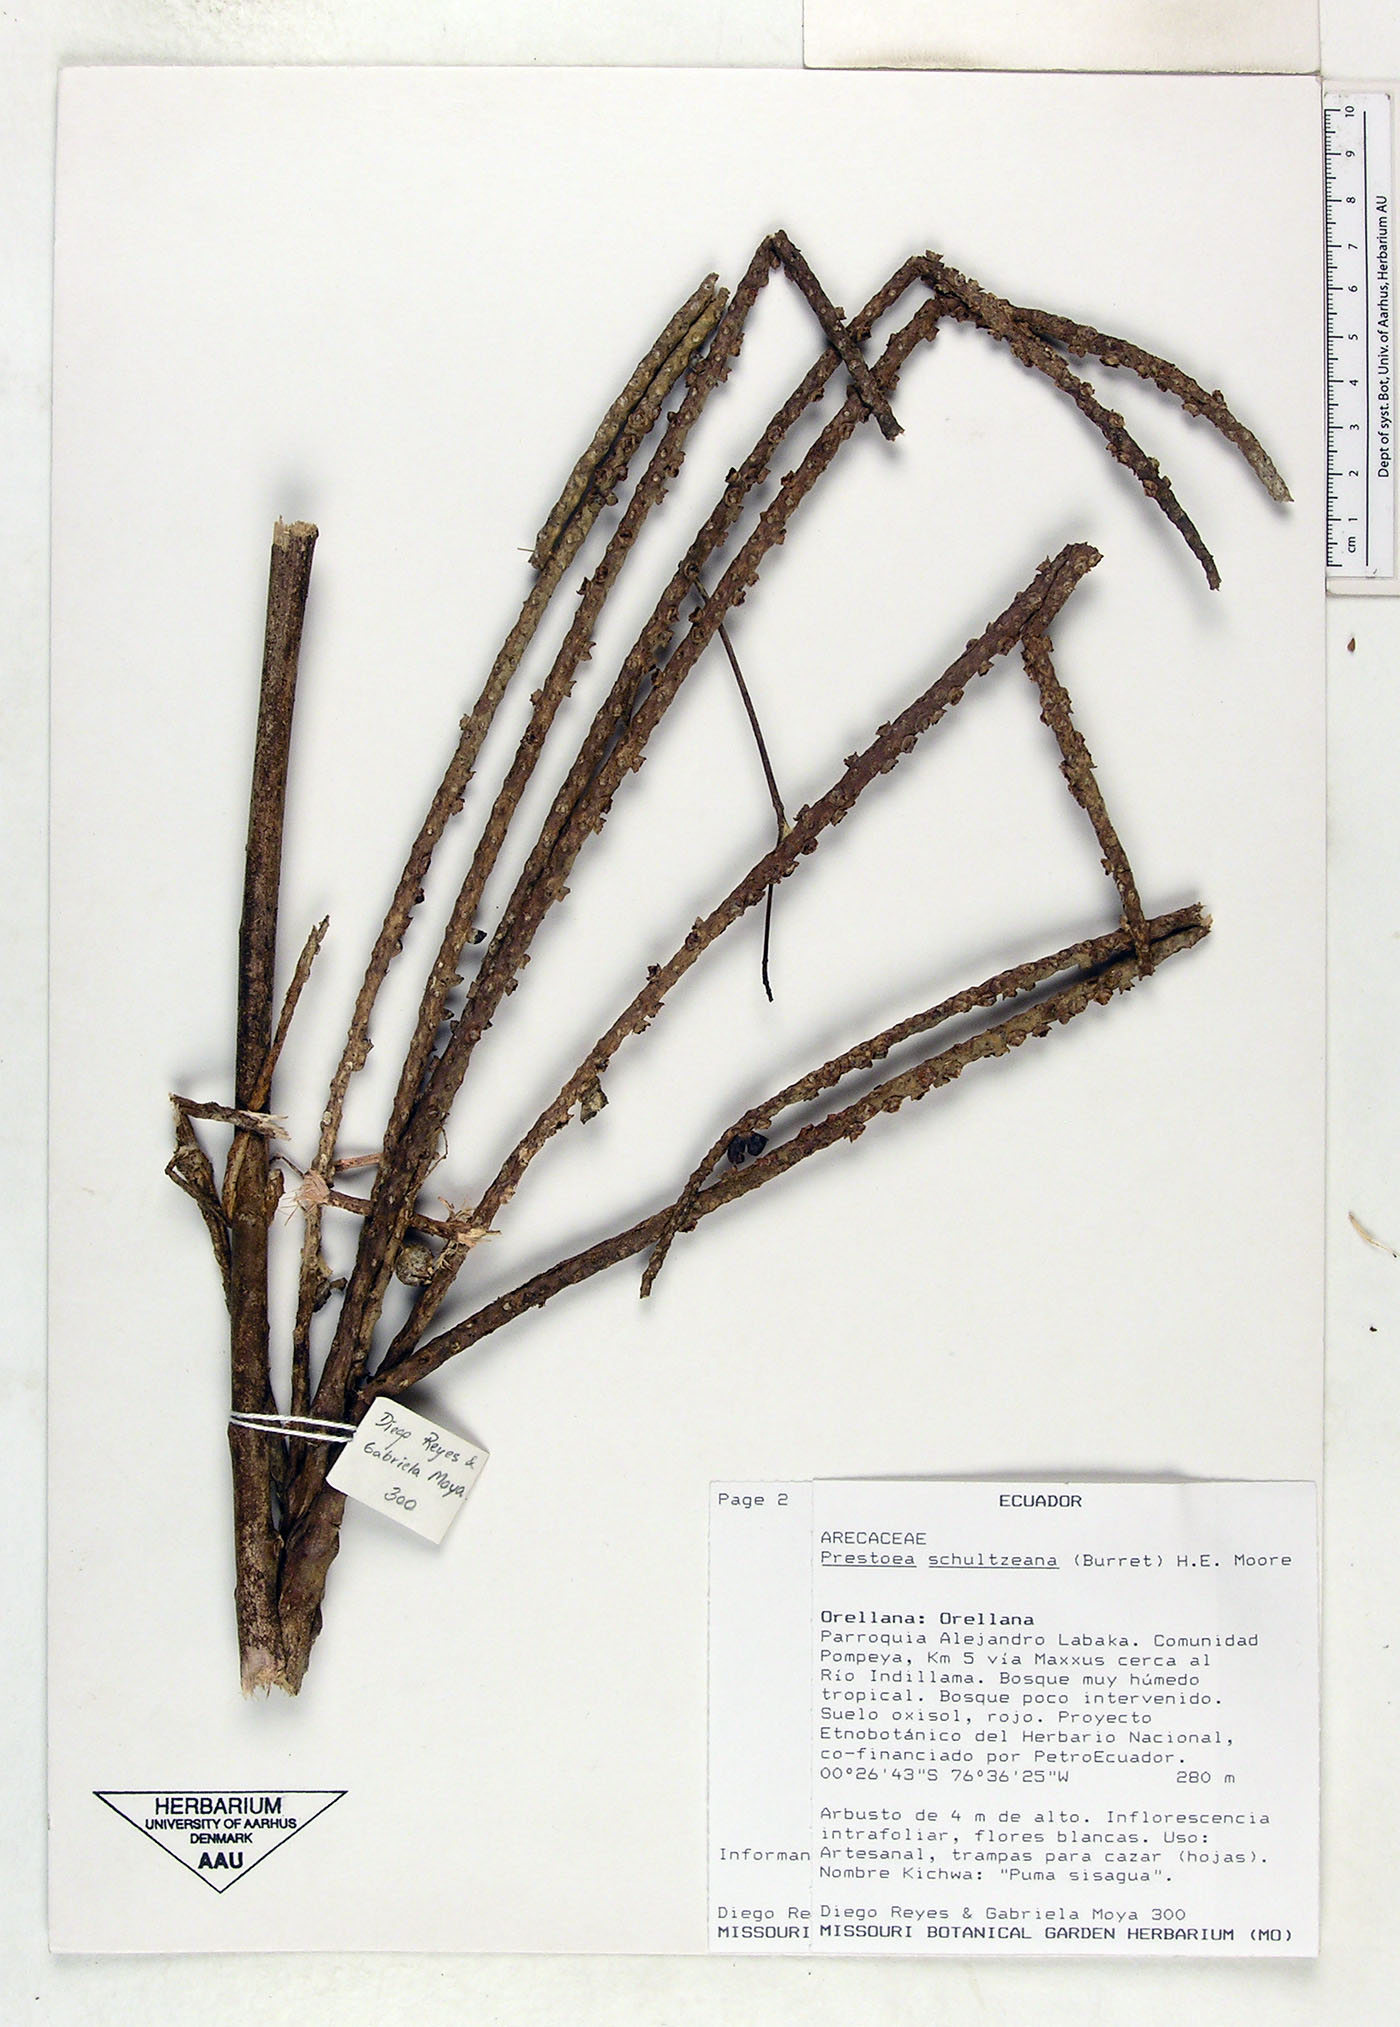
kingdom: Plantae
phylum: Tracheophyta
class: Liliopsida
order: Arecales
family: Arecaceae
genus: Prestoea
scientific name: Prestoea schultzeana
